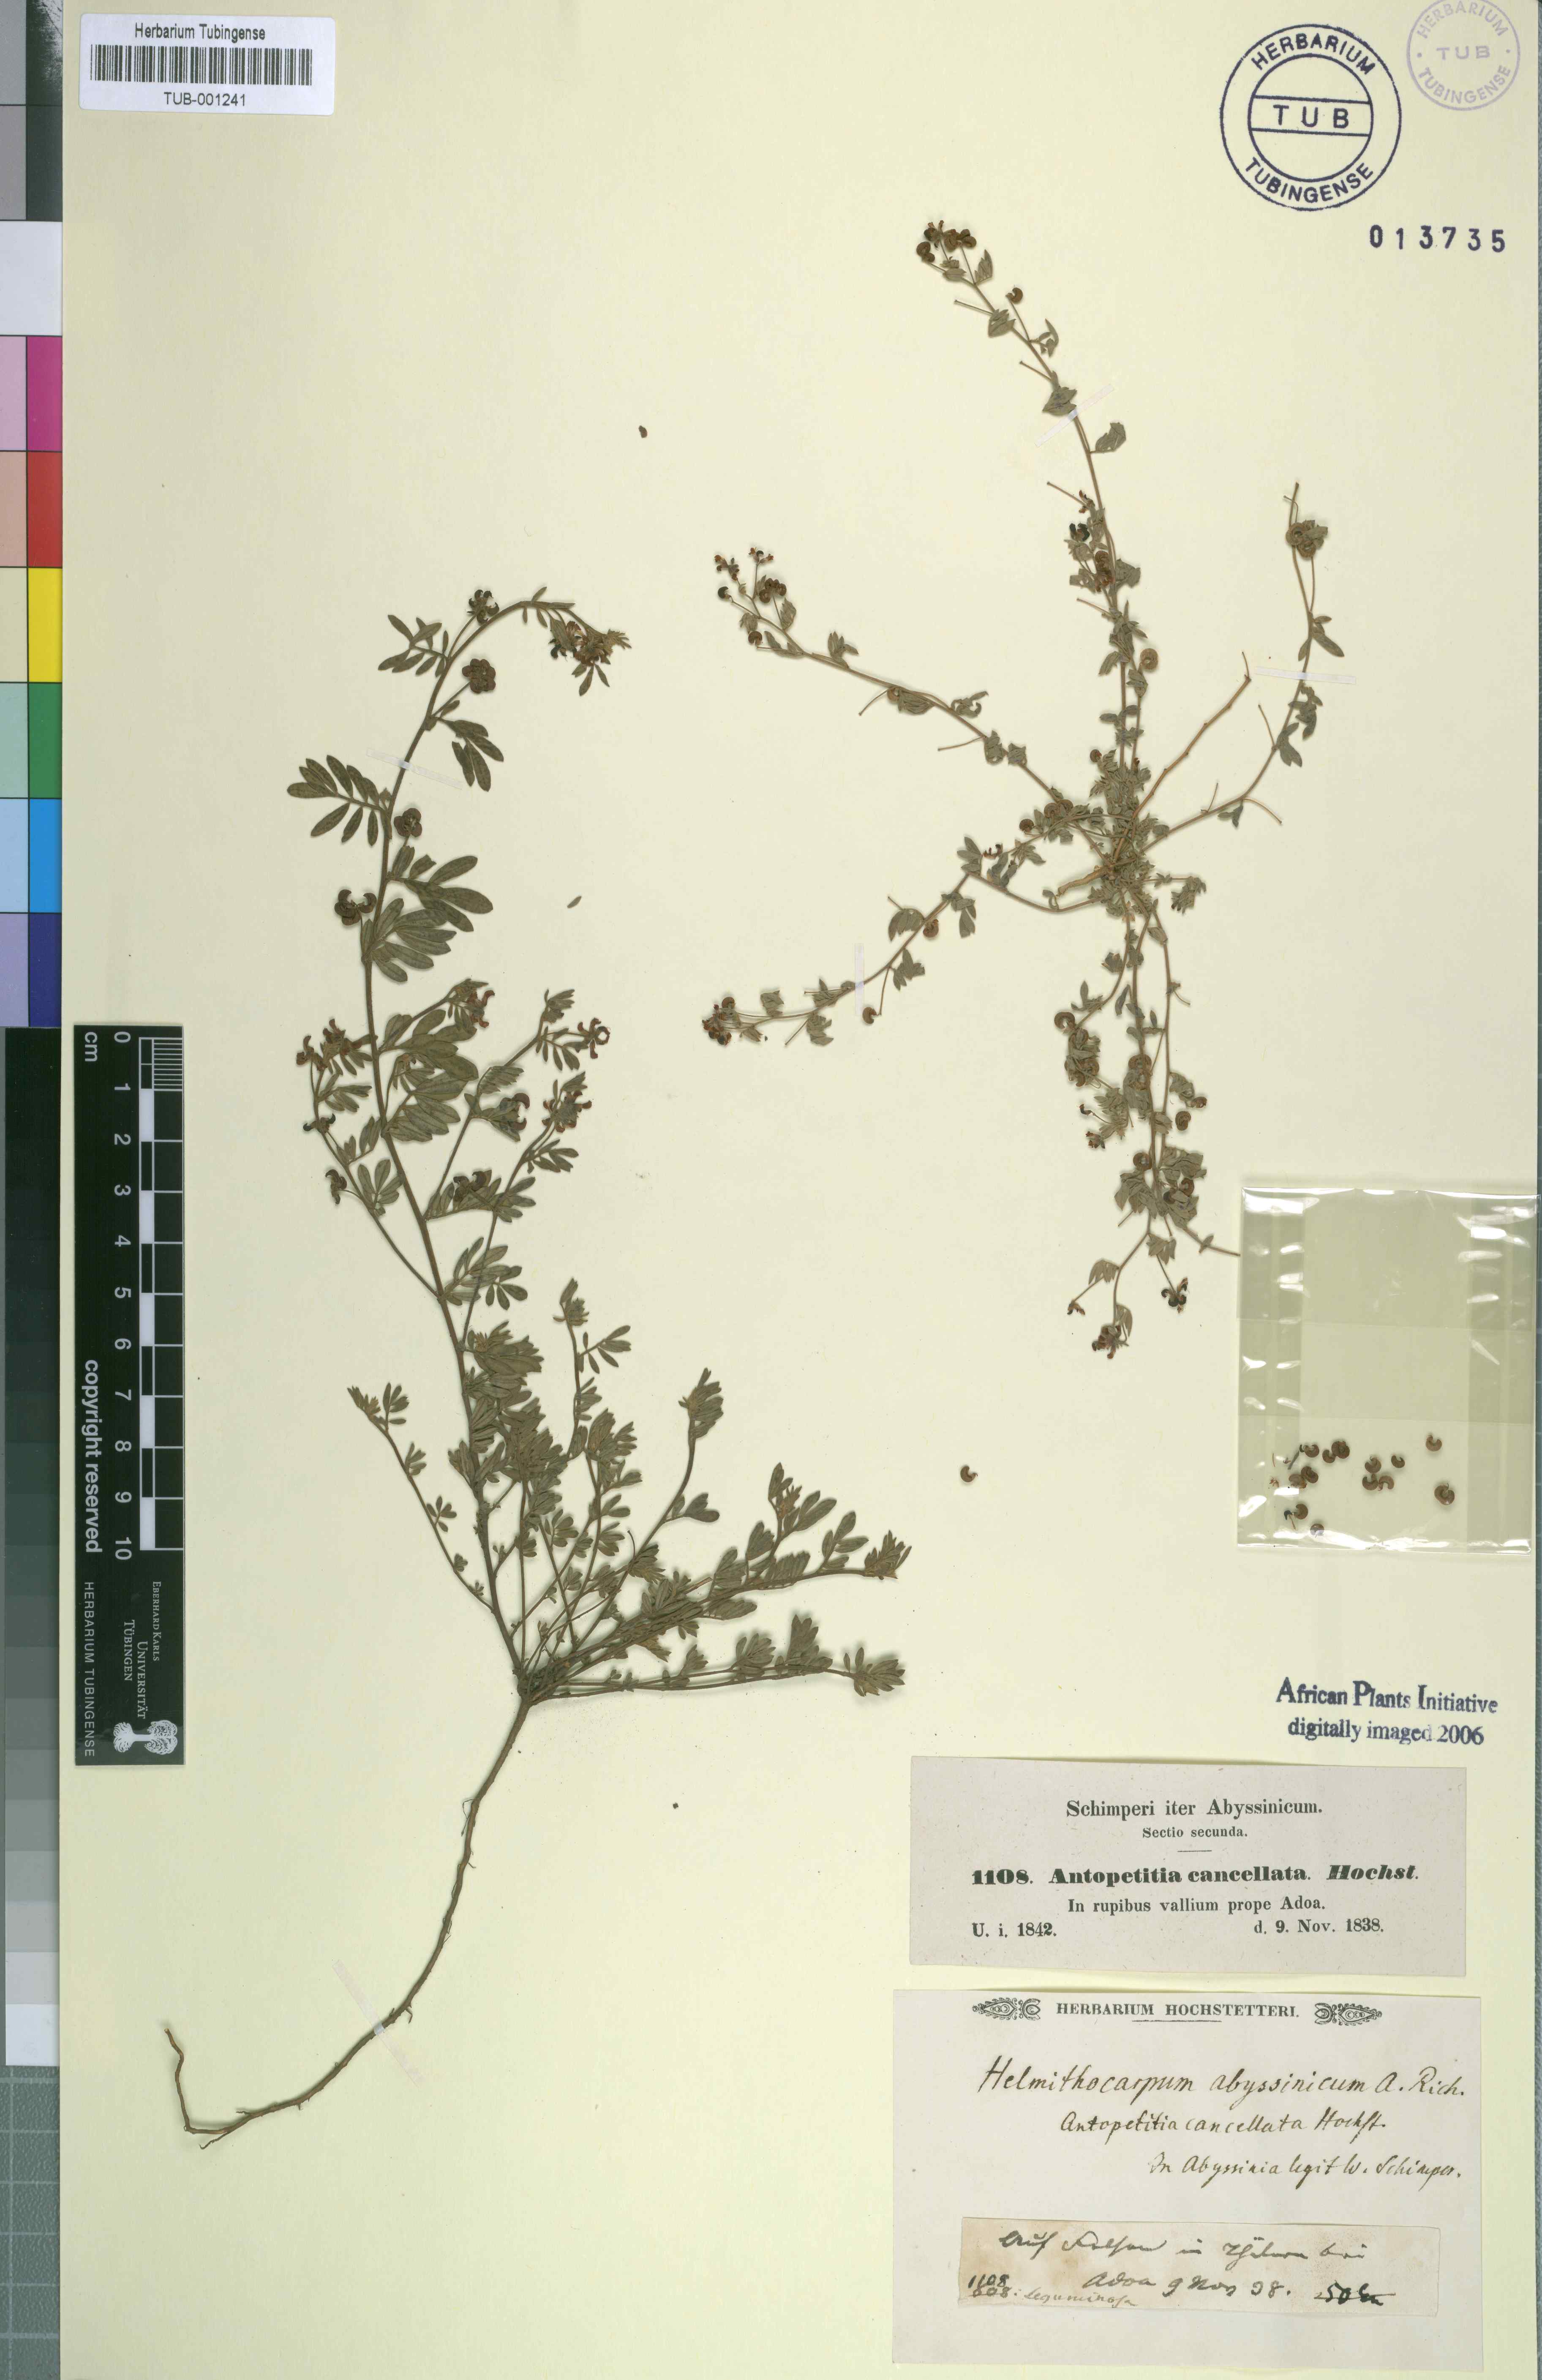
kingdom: Plantae
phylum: Tracheophyta
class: Magnoliopsida
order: Fabales
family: Fabaceae
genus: Helminthocarpum
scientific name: Helminthocarpum abyssinicum
